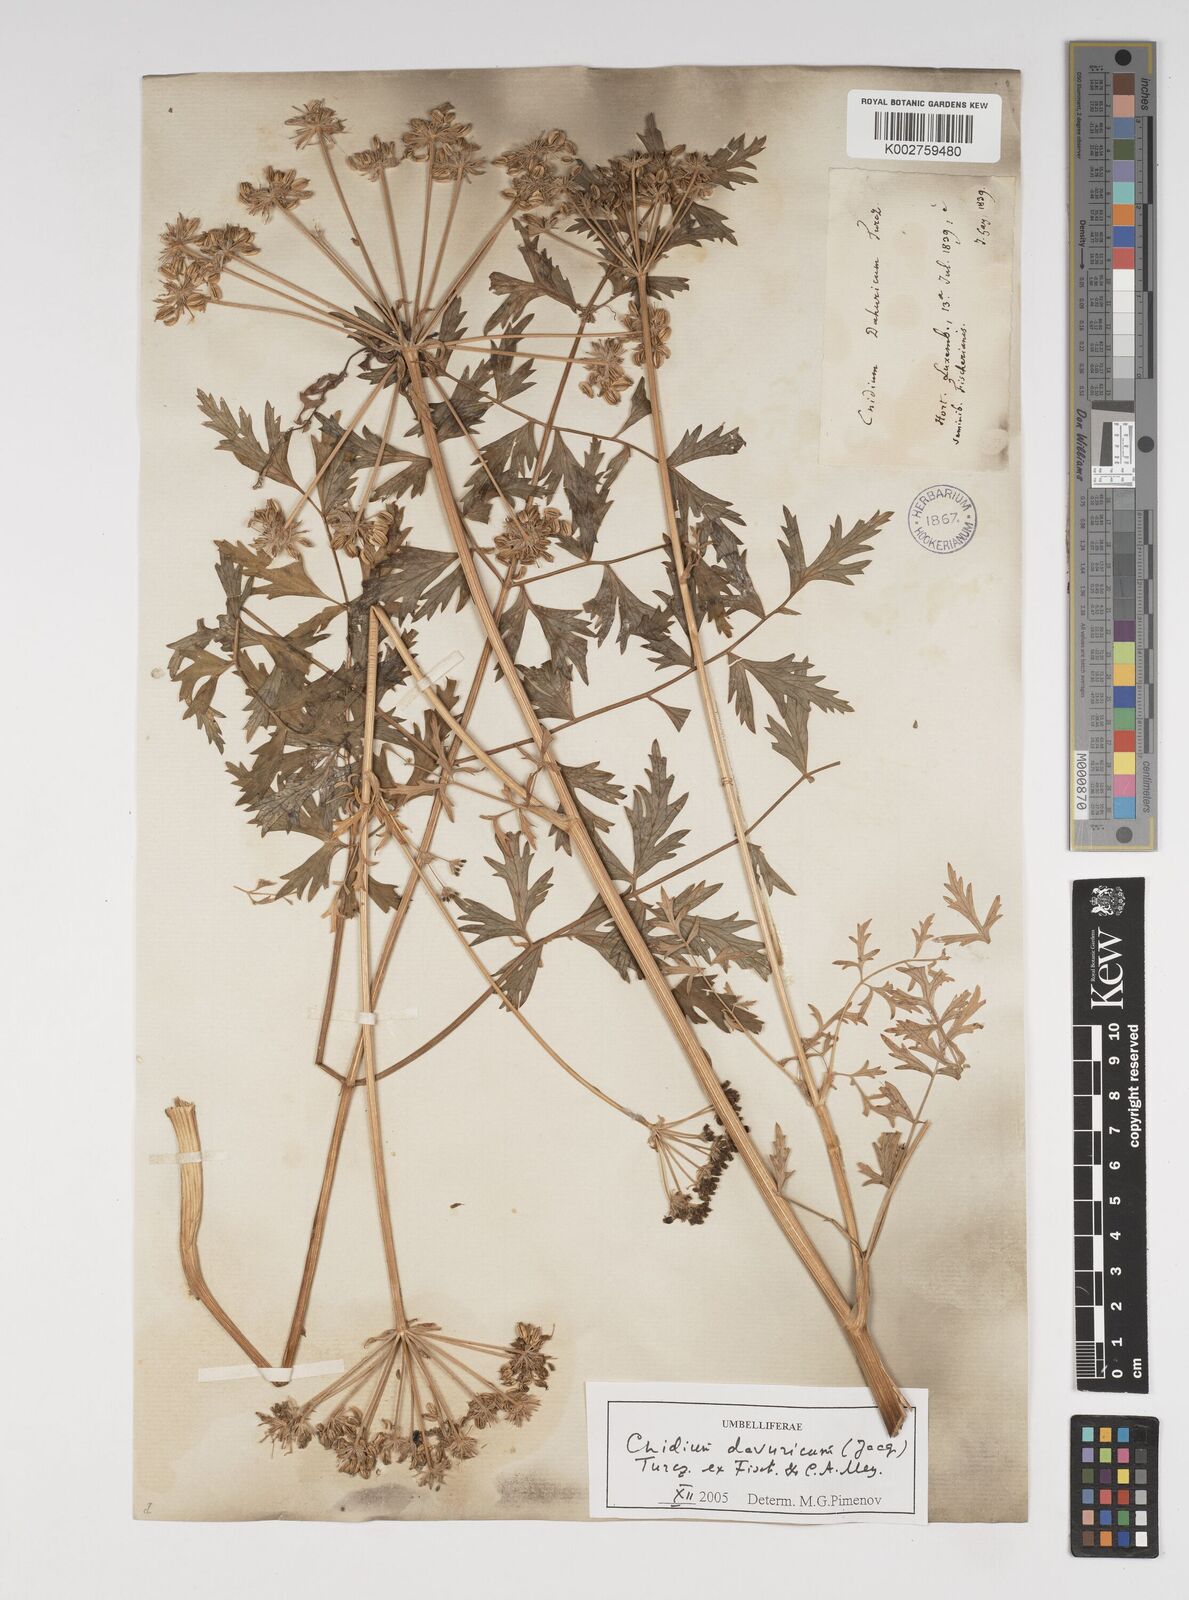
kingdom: Plantae
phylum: Tracheophyta
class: Magnoliopsida
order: Apiales
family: Apiaceae
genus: Cnidium
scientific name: Cnidium dauricum
